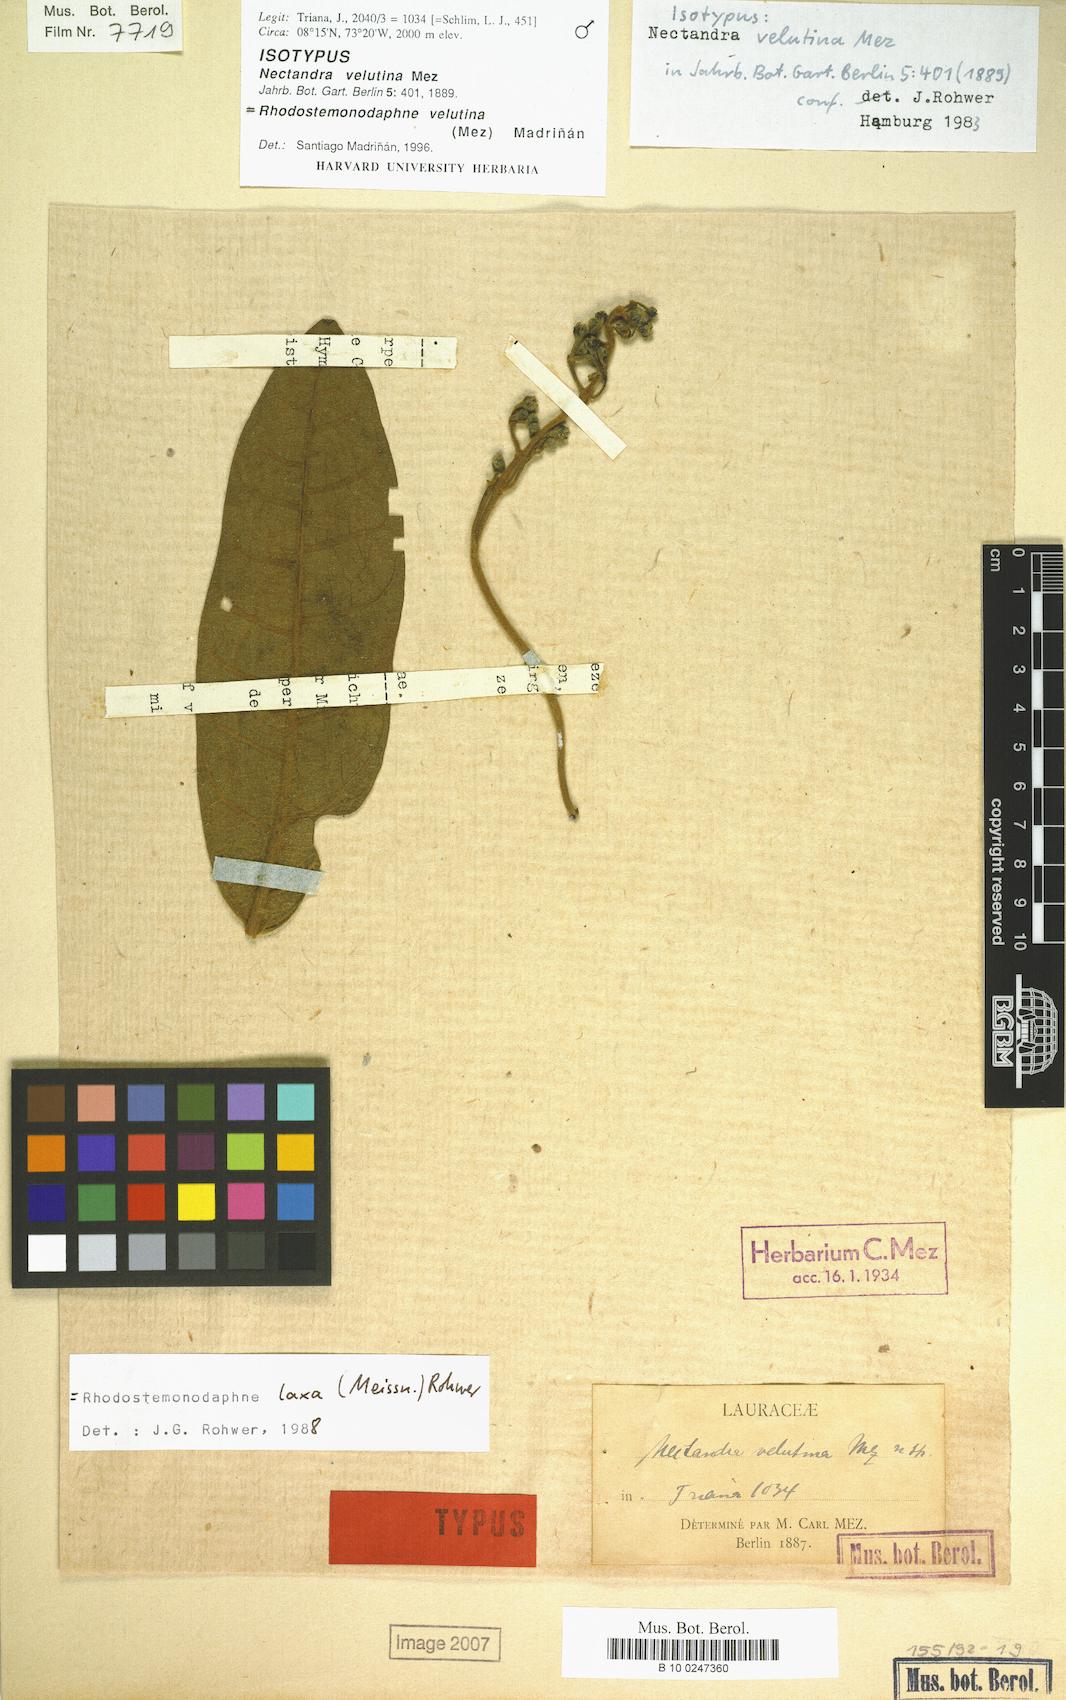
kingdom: Plantae
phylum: Tracheophyta
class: Magnoliopsida
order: Laurales
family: Lauraceae
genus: Rhodostemonodaphne
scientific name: Rhodostemonodaphne velutina
